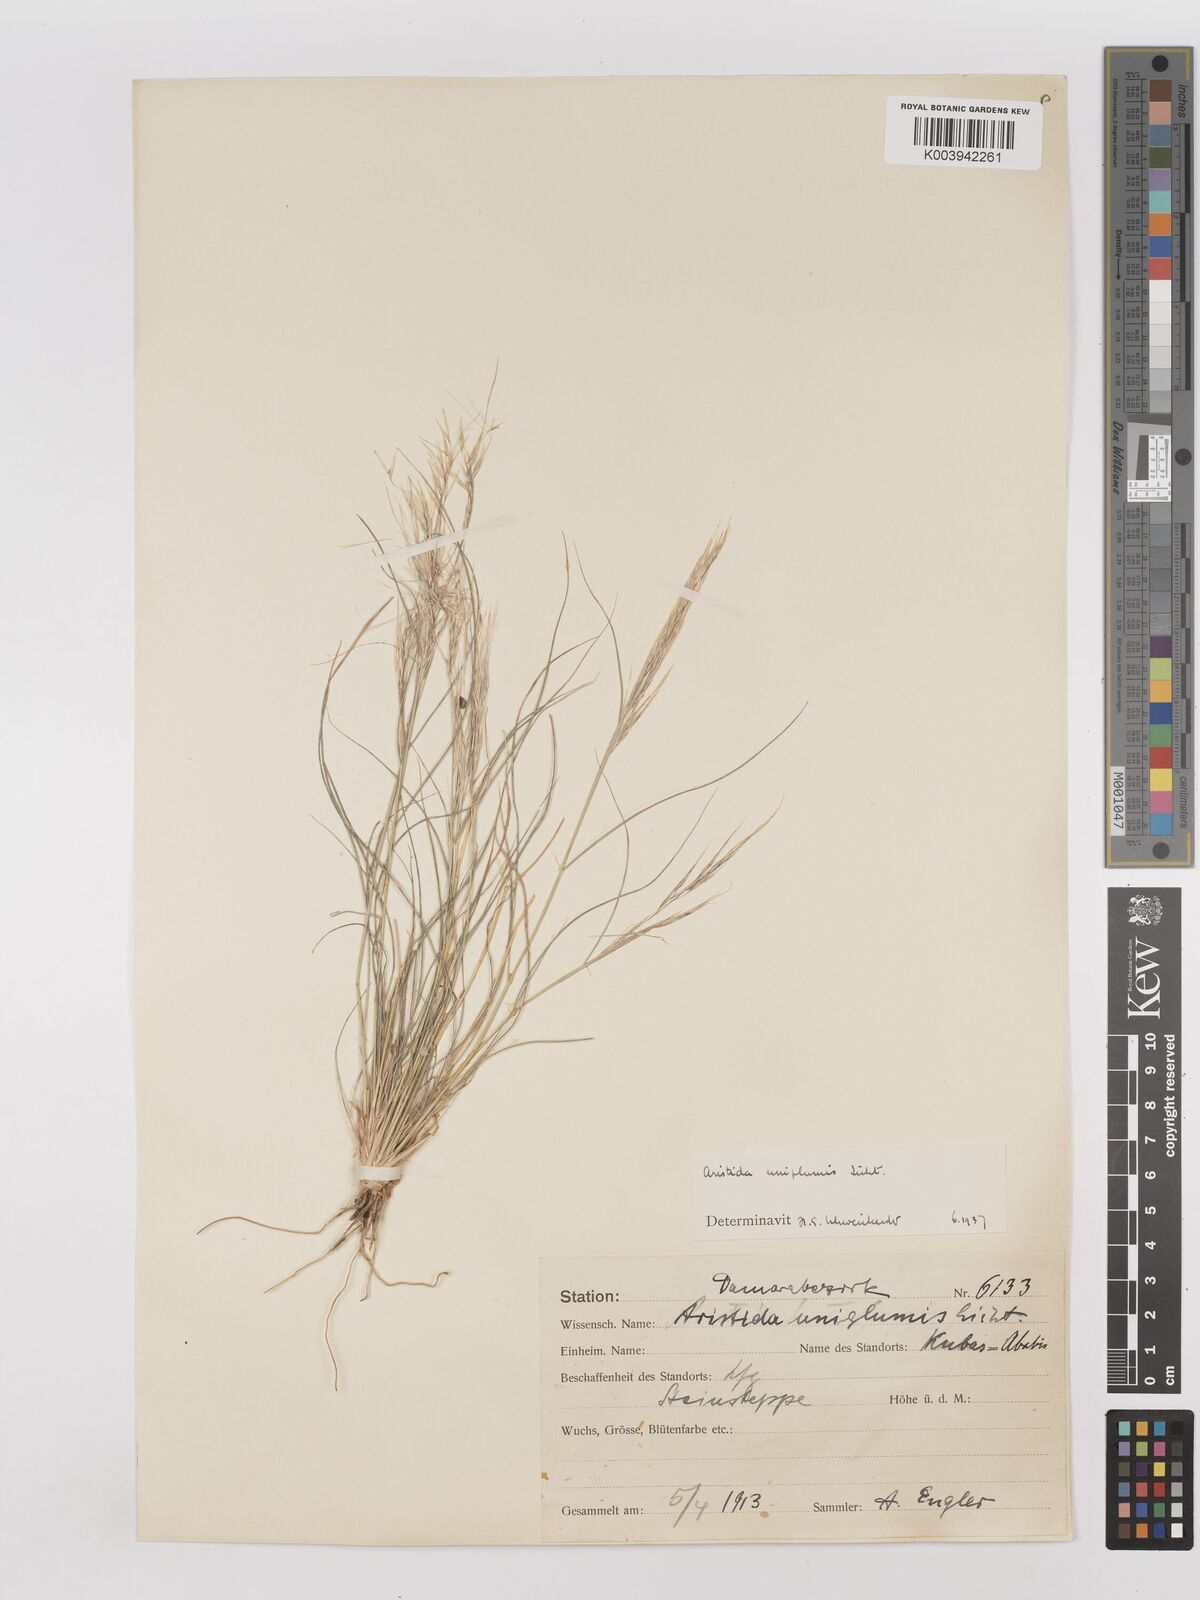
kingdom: Plantae
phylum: Tracheophyta
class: Liliopsida
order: Poales
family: Poaceae
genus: Stipagrostis
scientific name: Stipagrostis uniplumis
